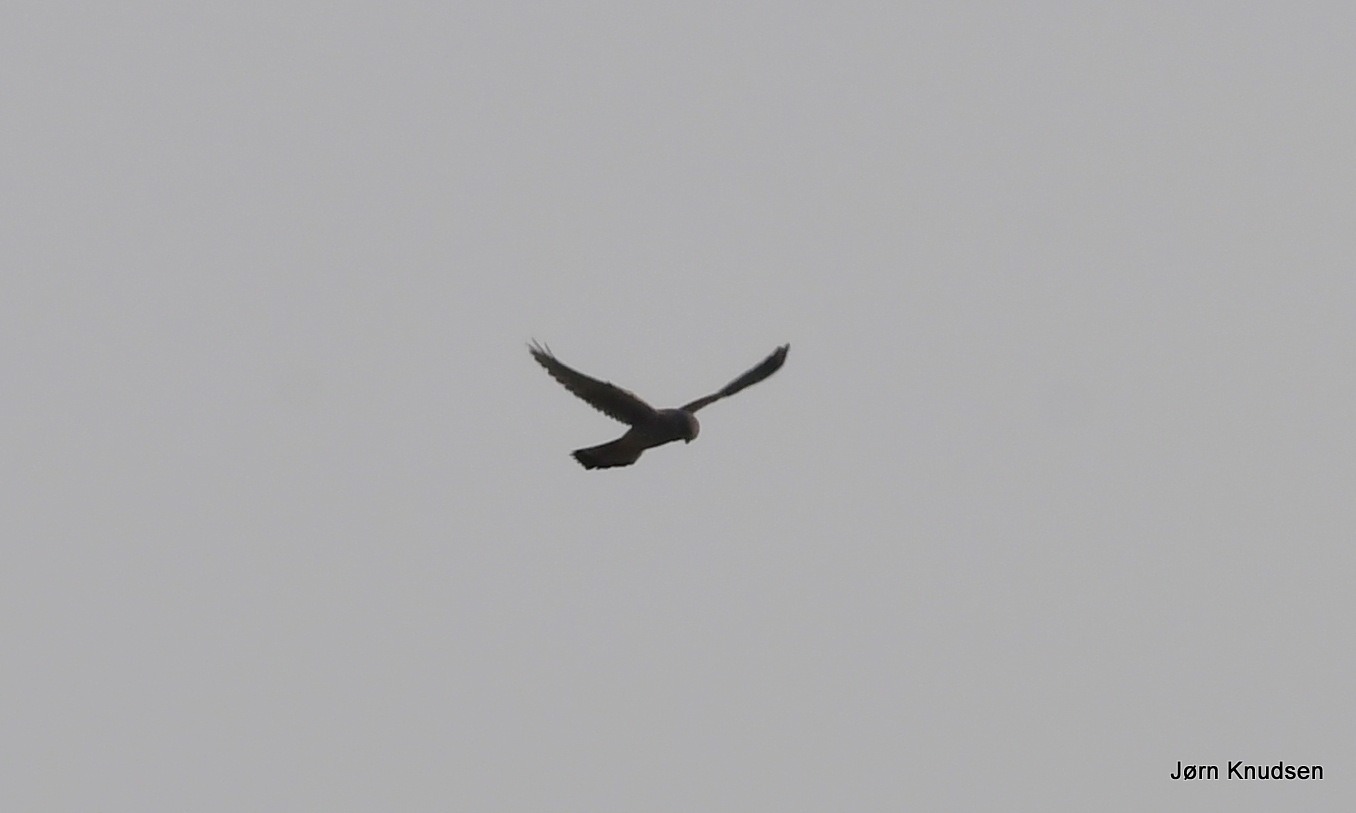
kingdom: Animalia
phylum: Chordata
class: Aves
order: Falconiformes
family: Falconidae
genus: Falco
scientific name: Falco tinnunculus
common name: Tårnfalk
